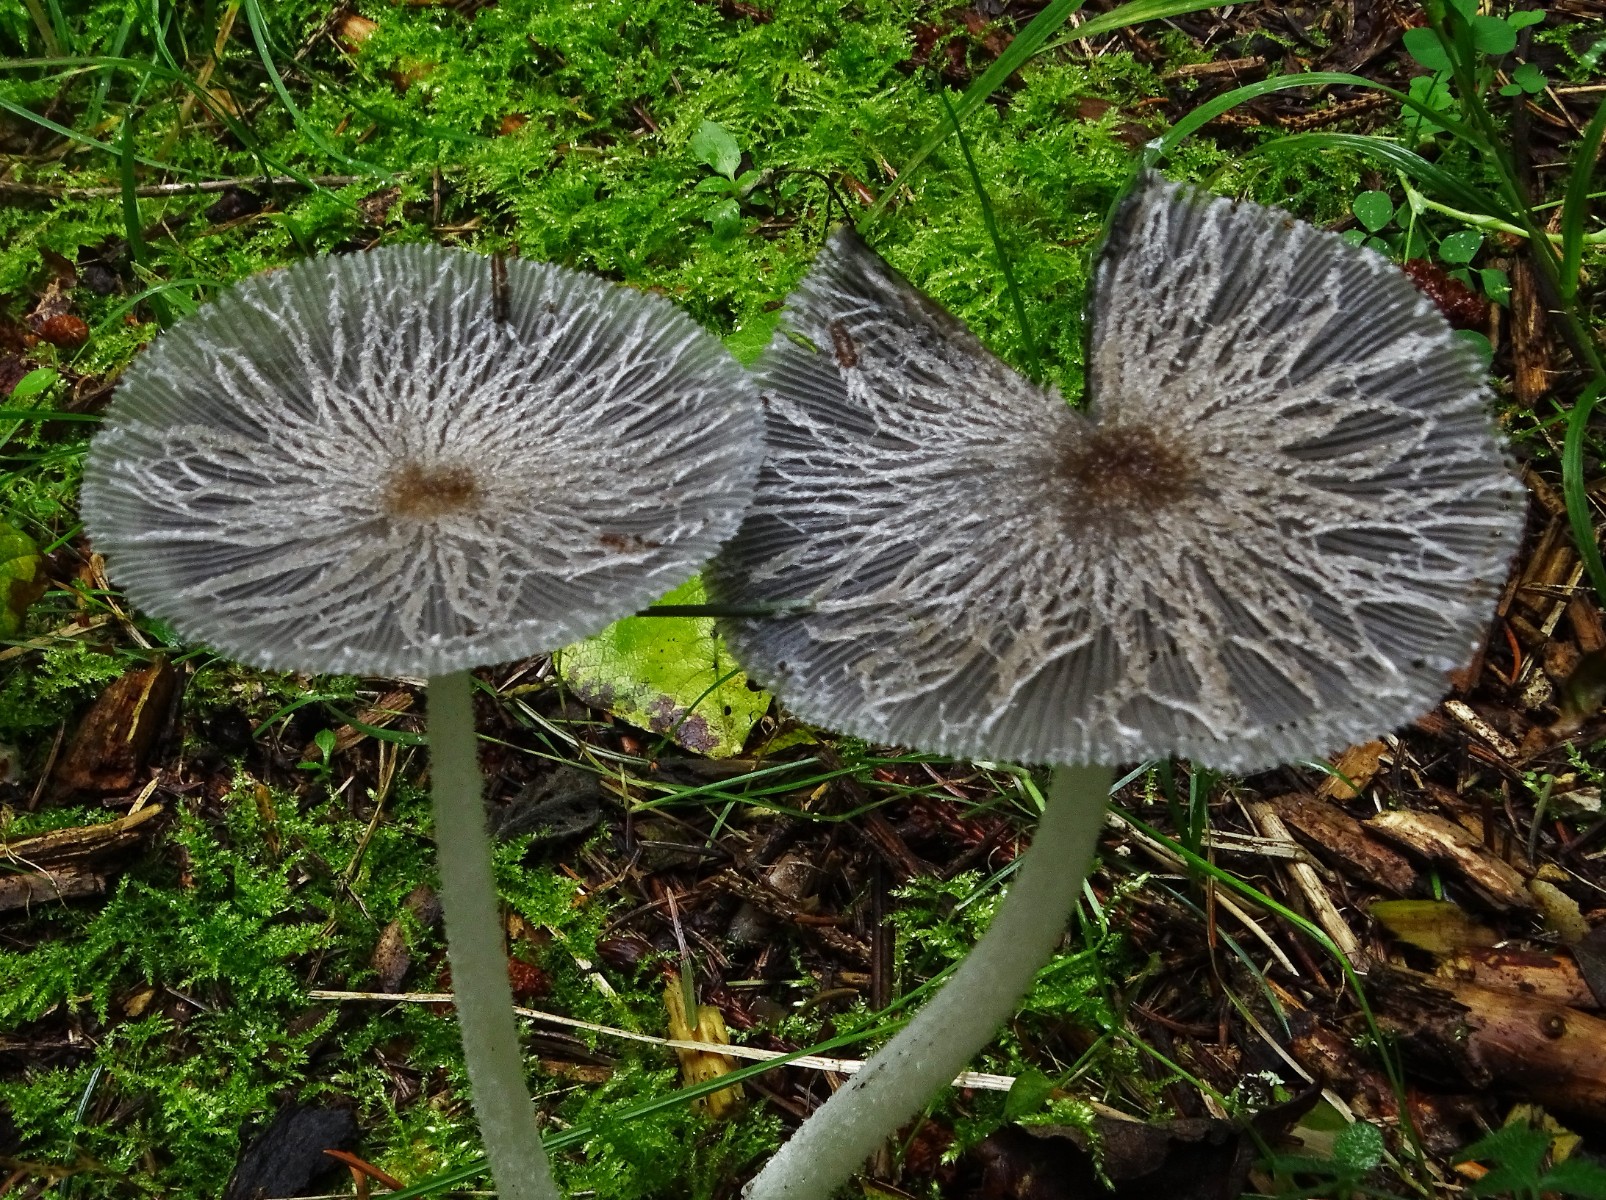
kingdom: Fungi
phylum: Basidiomycota
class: Agaricomycetes
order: Agaricales
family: Psathyrellaceae
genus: Coprinopsis
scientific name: Coprinopsis lagopus
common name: dunstokket blækhat
